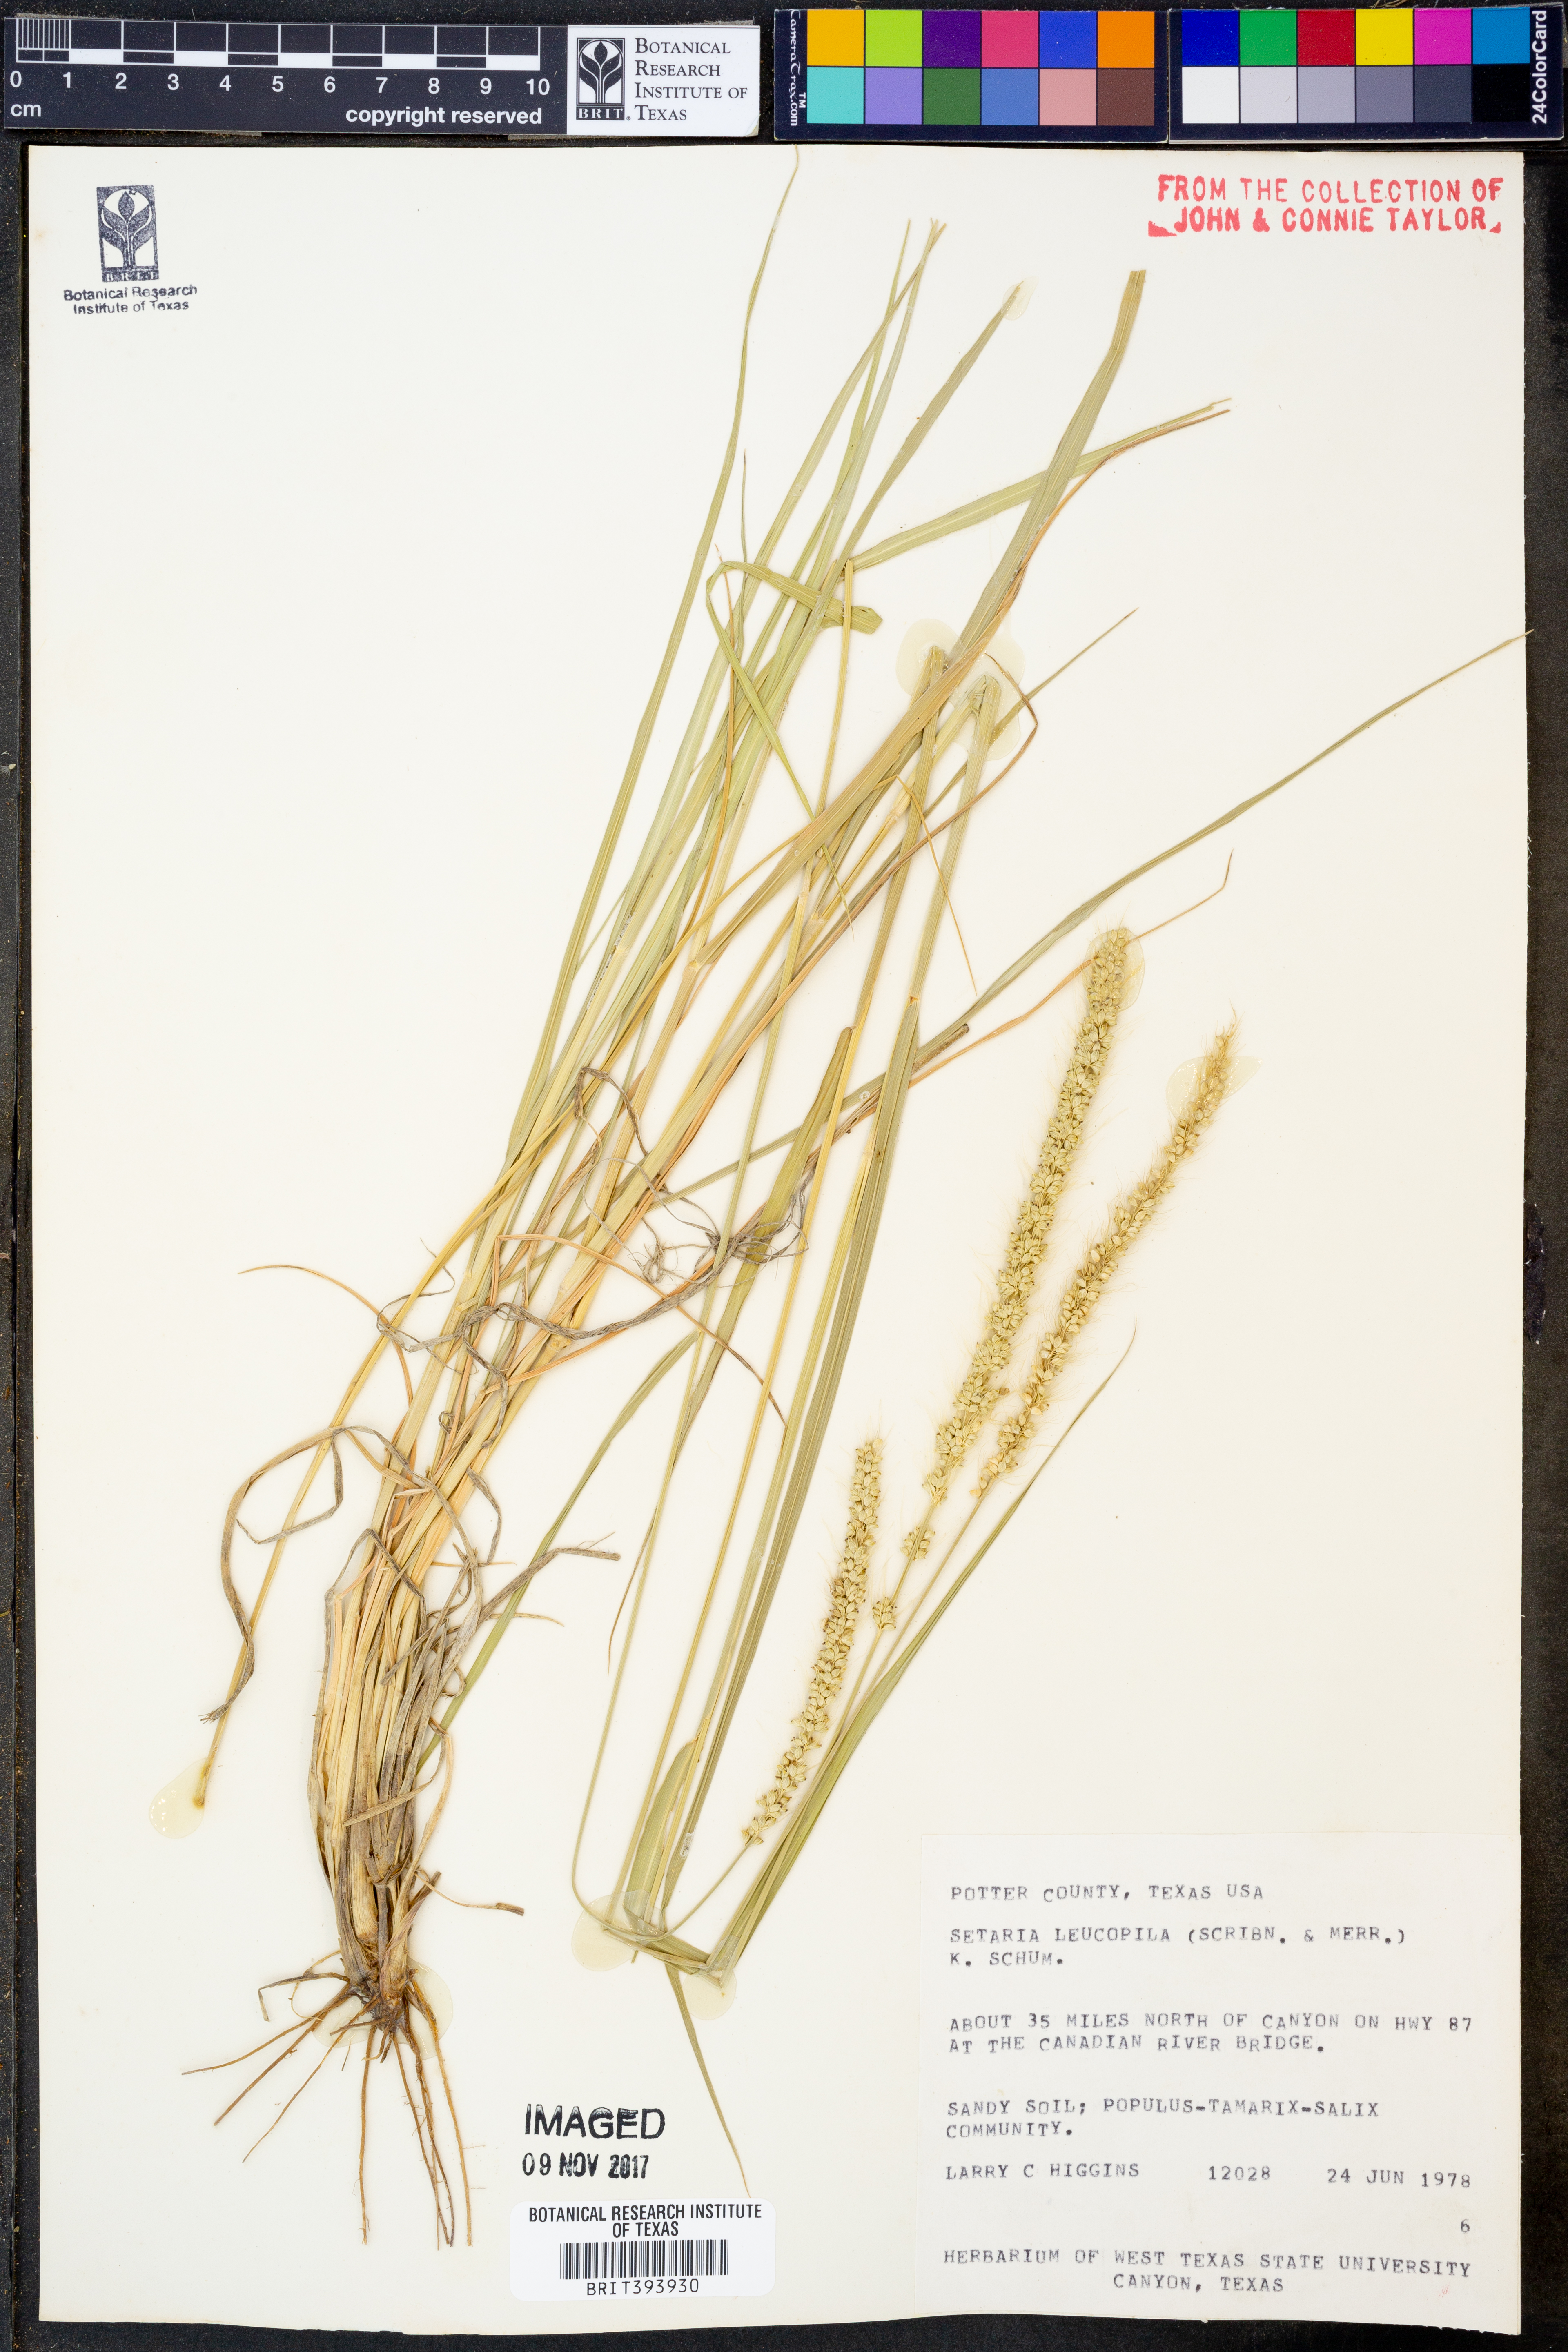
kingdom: Plantae
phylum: Tracheophyta
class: Liliopsida
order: Poales
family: Poaceae
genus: Setaria
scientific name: Setaria leucopila
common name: Plains bristle grass
